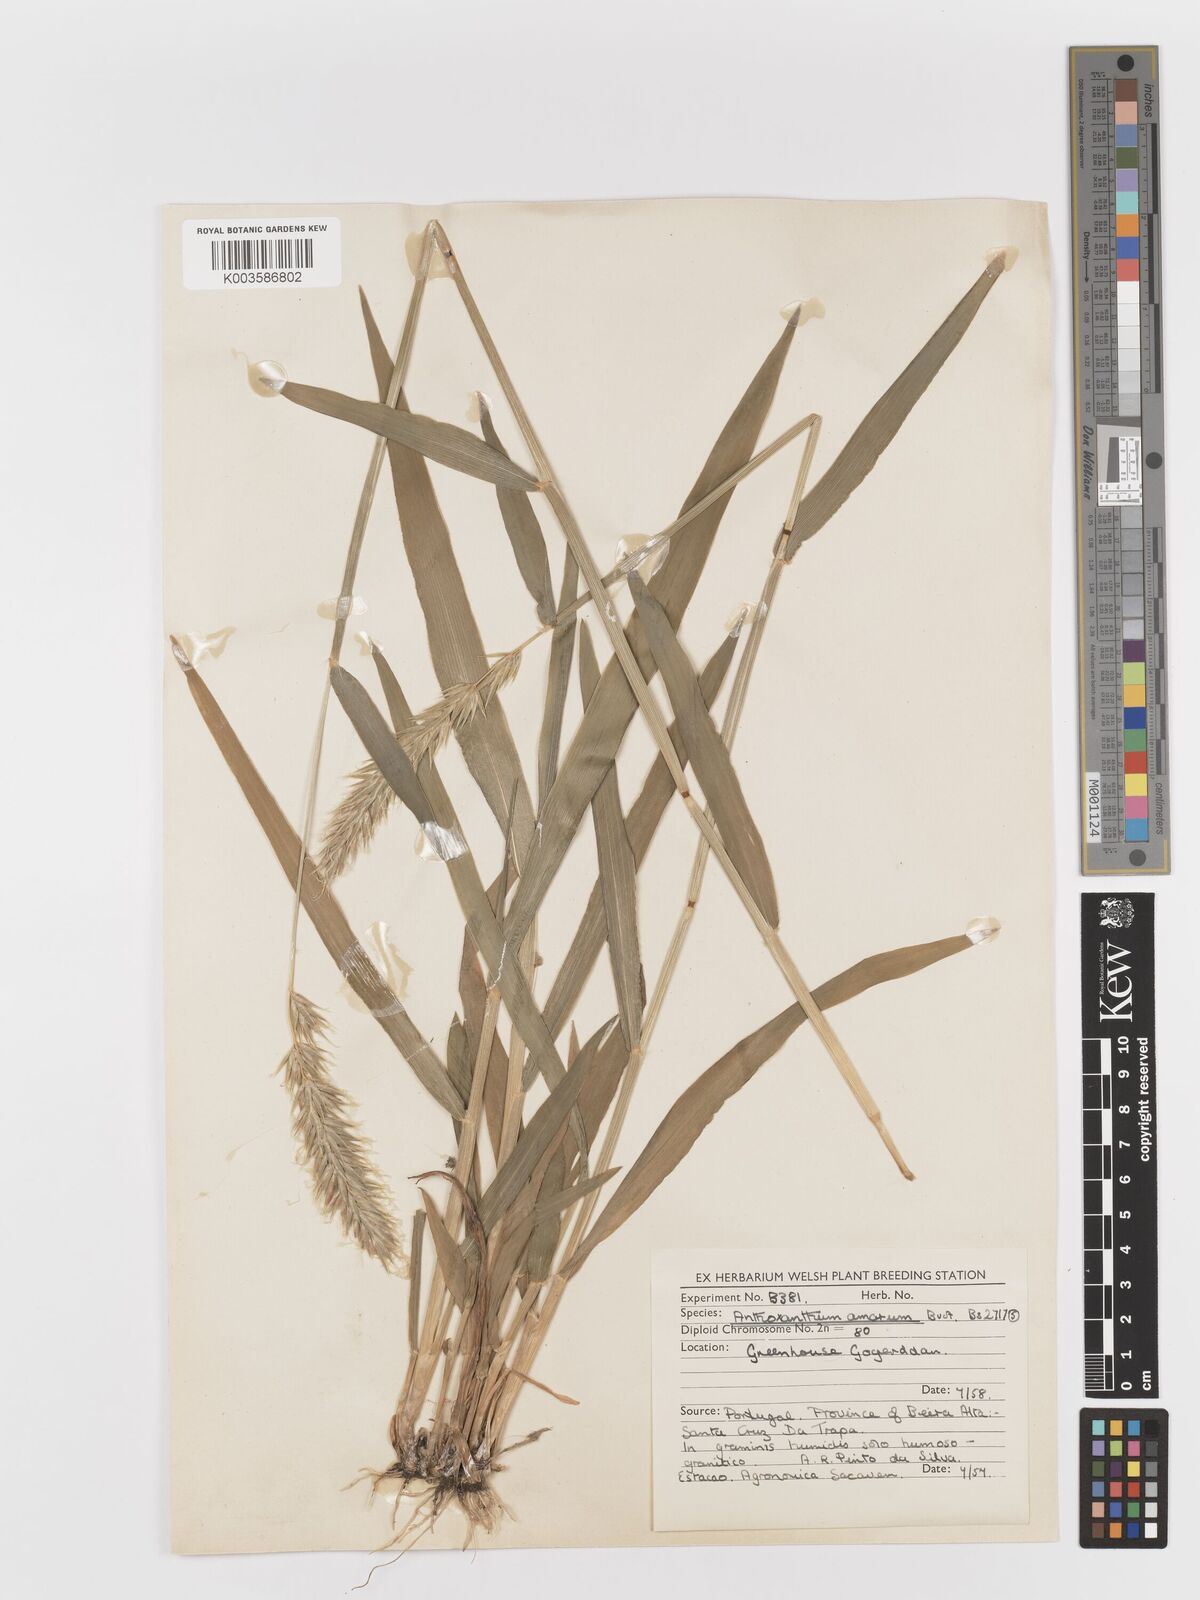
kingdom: Plantae
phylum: Tracheophyta
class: Liliopsida
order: Poales
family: Poaceae
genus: Anthoxanthum
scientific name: Anthoxanthum amarum
